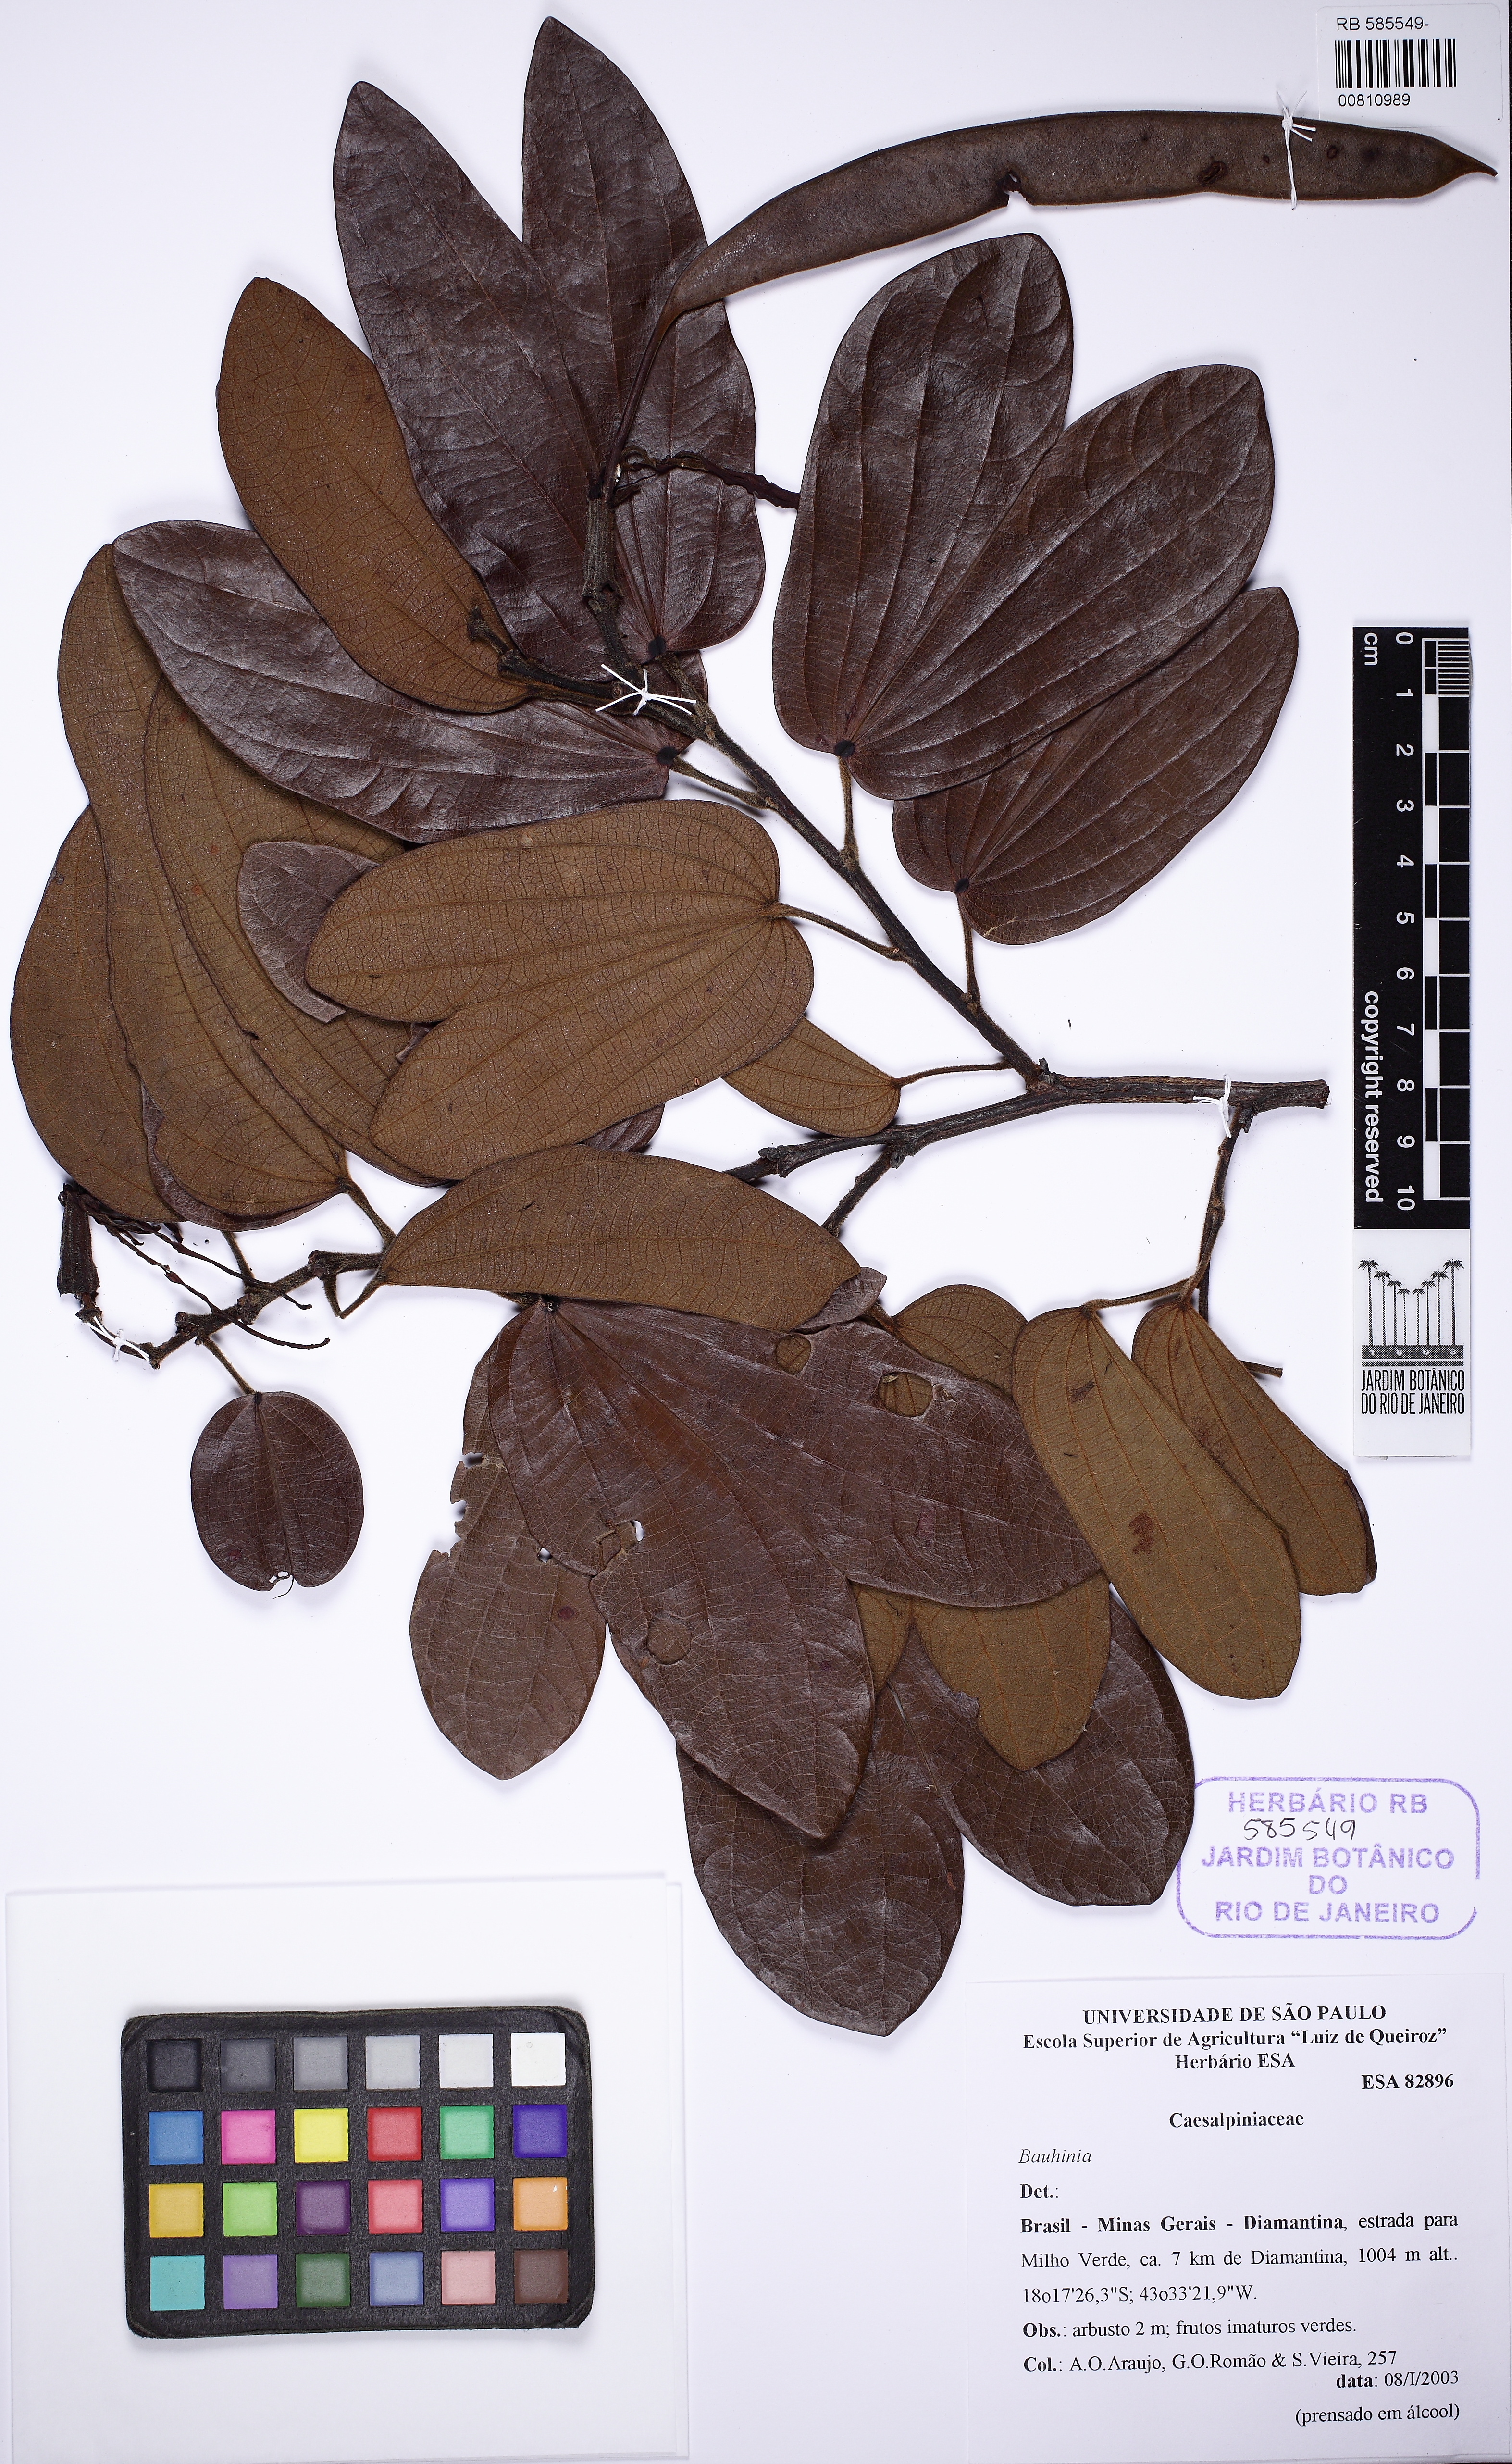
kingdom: Plantae
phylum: Tracheophyta
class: Magnoliopsida
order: Fabales
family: Fabaceae
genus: Bauhinia
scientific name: Bauhinia
